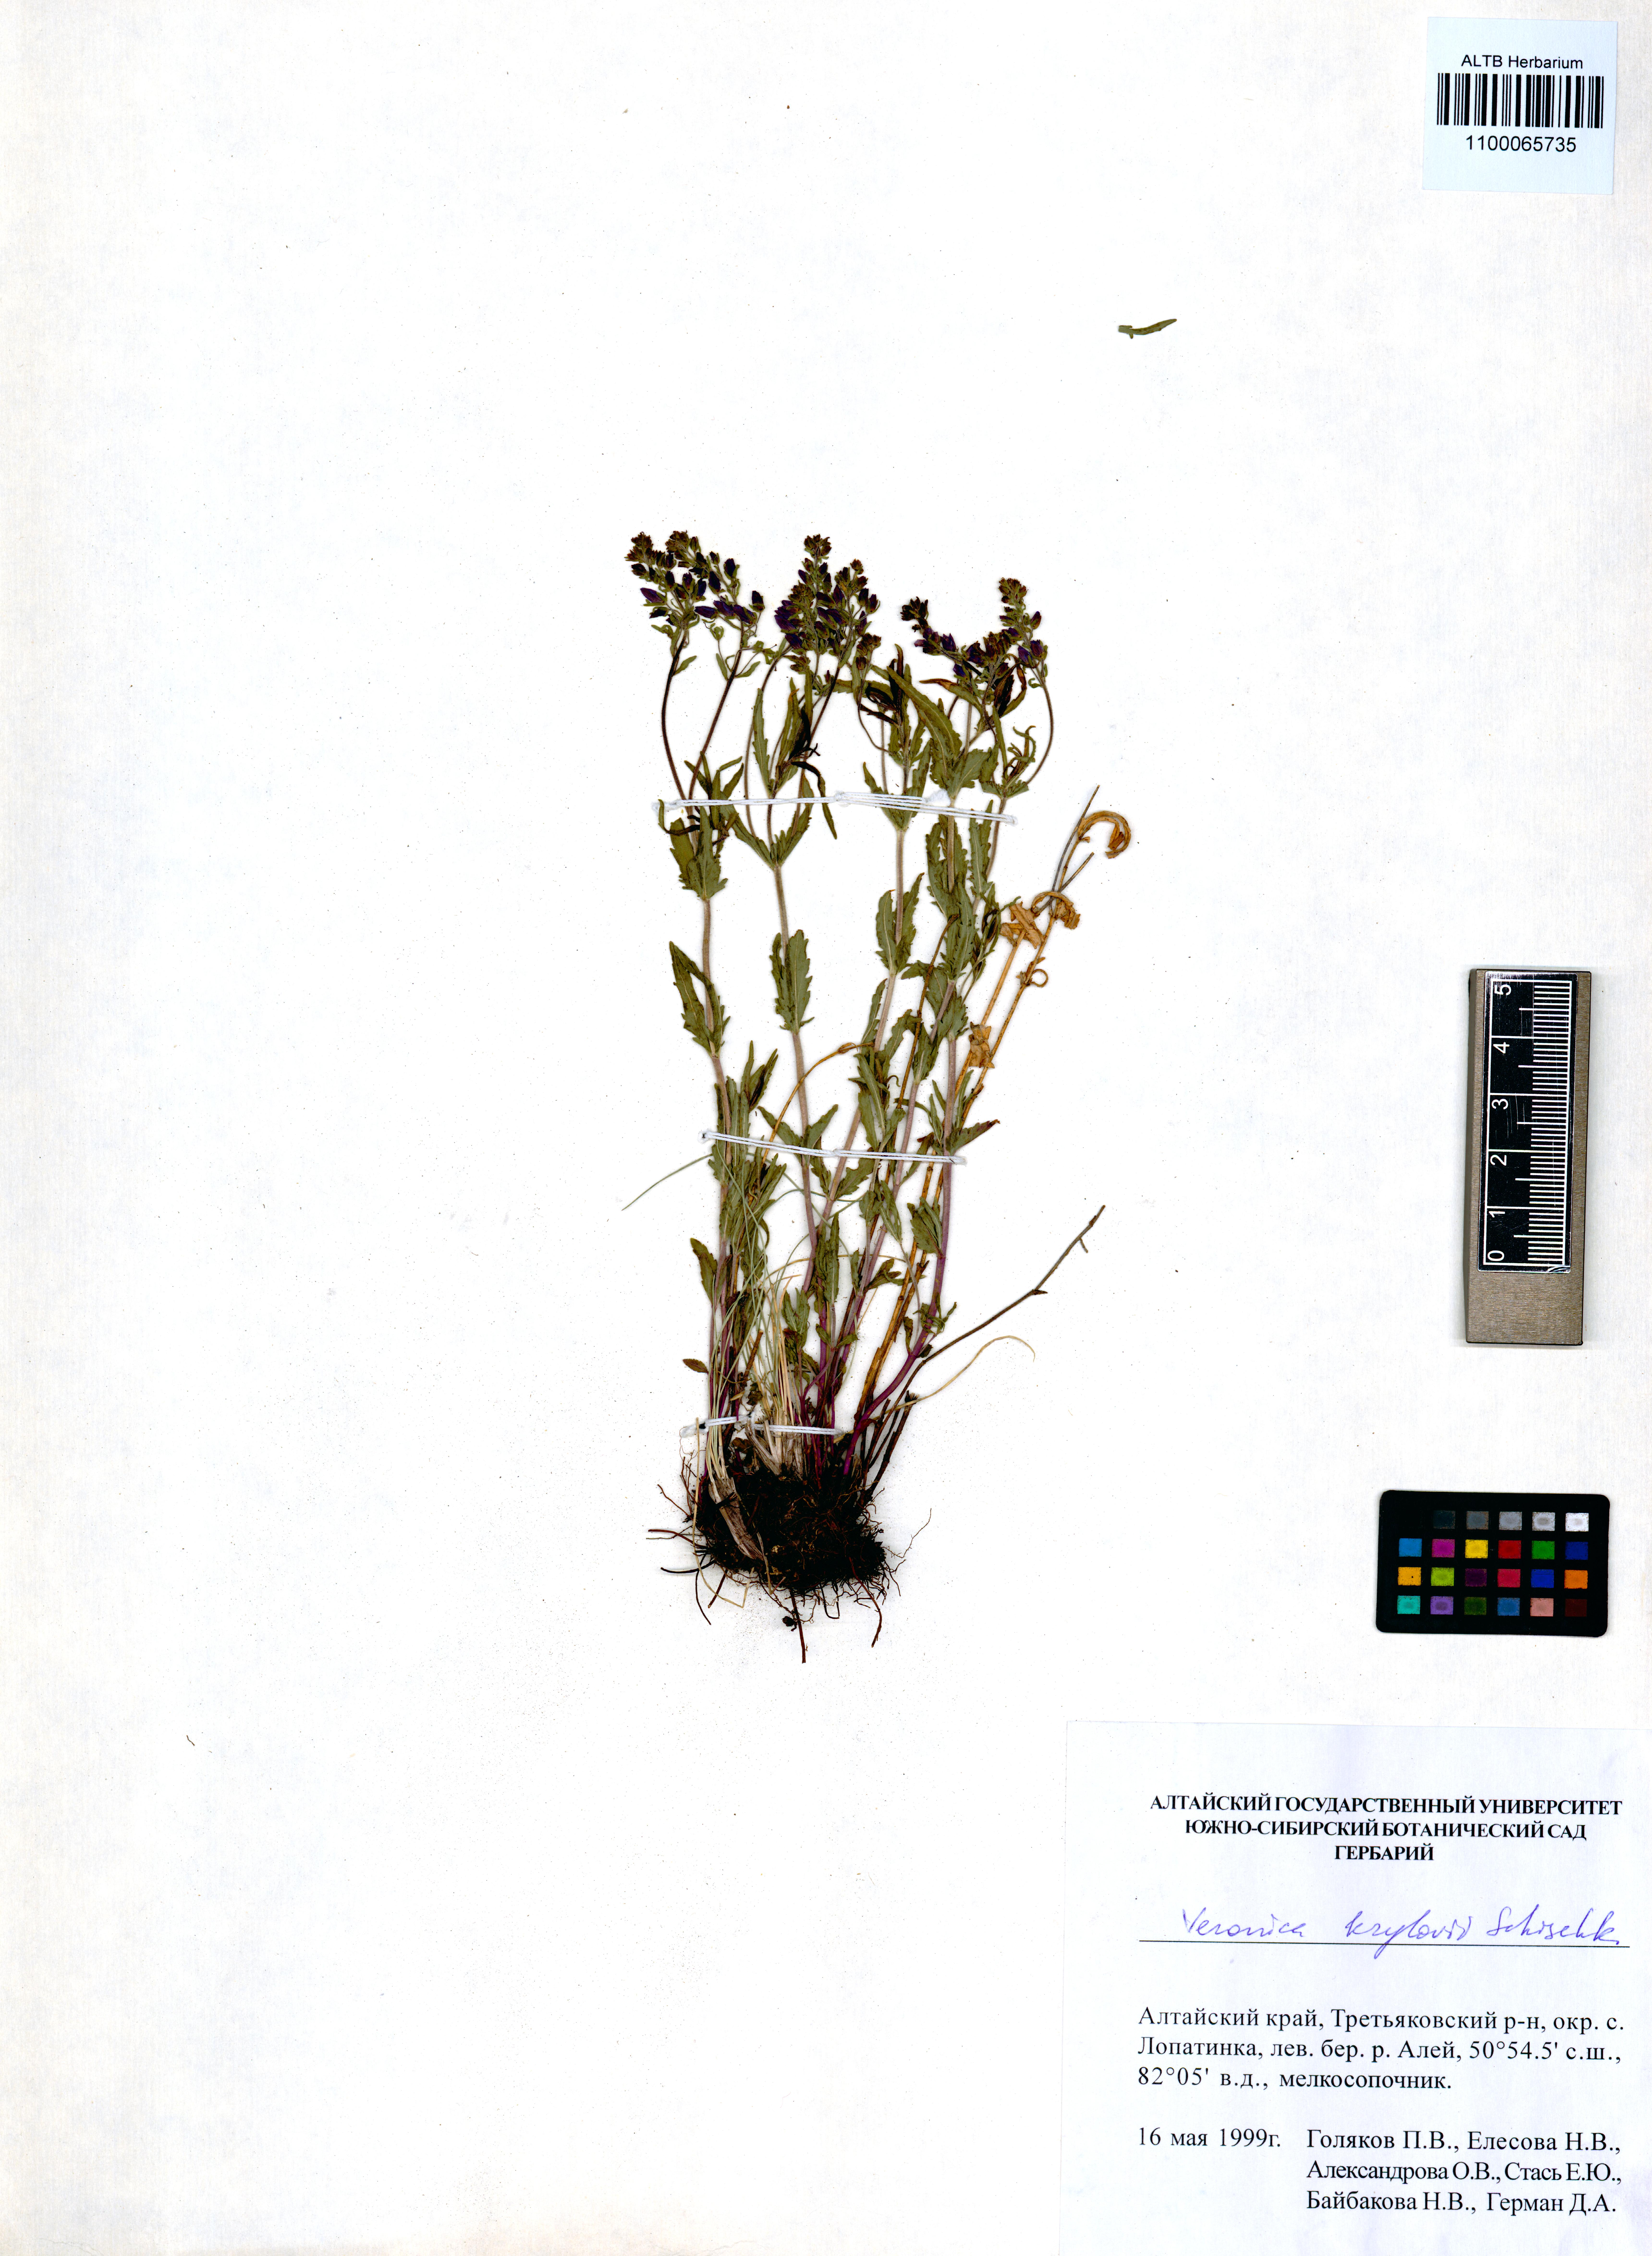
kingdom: Plantae
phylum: Tracheophyta
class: Magnoliopsida
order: Lamiales
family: Plantaginaceae
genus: Veronica
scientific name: Veronica krylovii
